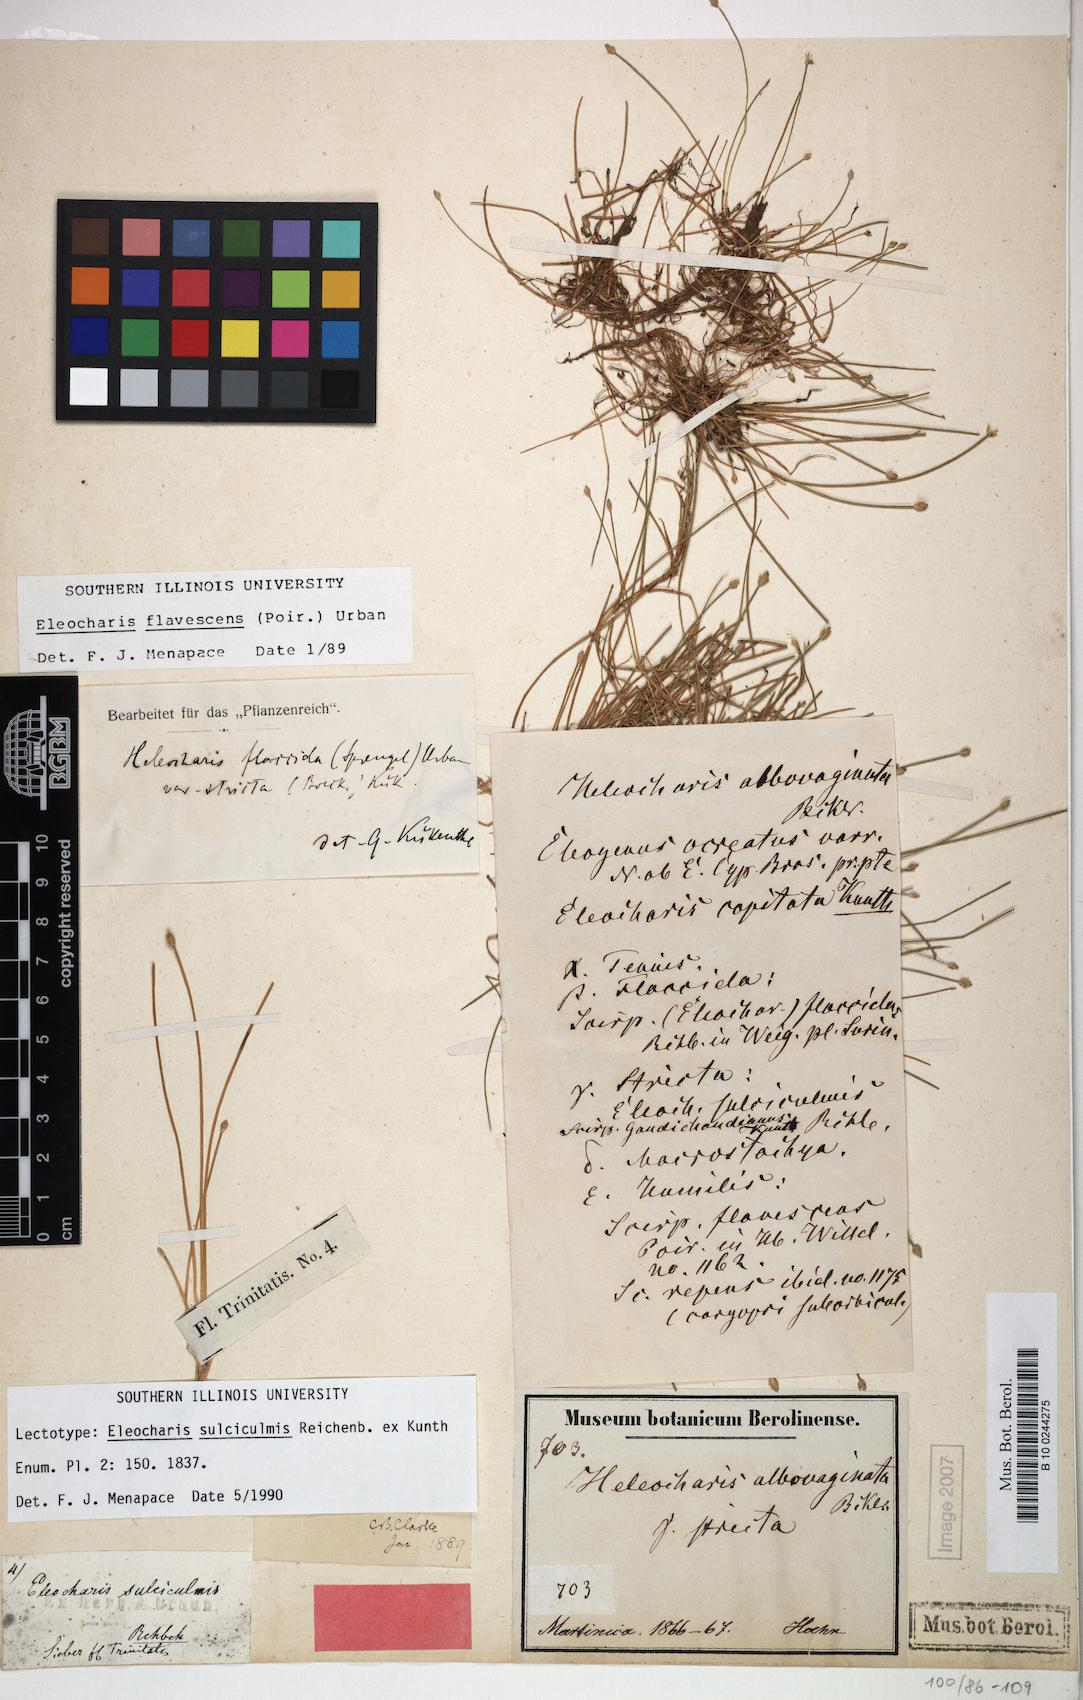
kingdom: Plantae
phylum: Tracheophyta
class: Liliopsida
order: Poales
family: Cyperaceae
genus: Eleocharis
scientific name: Eleocharis flavescens
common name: Yellow spikerush
